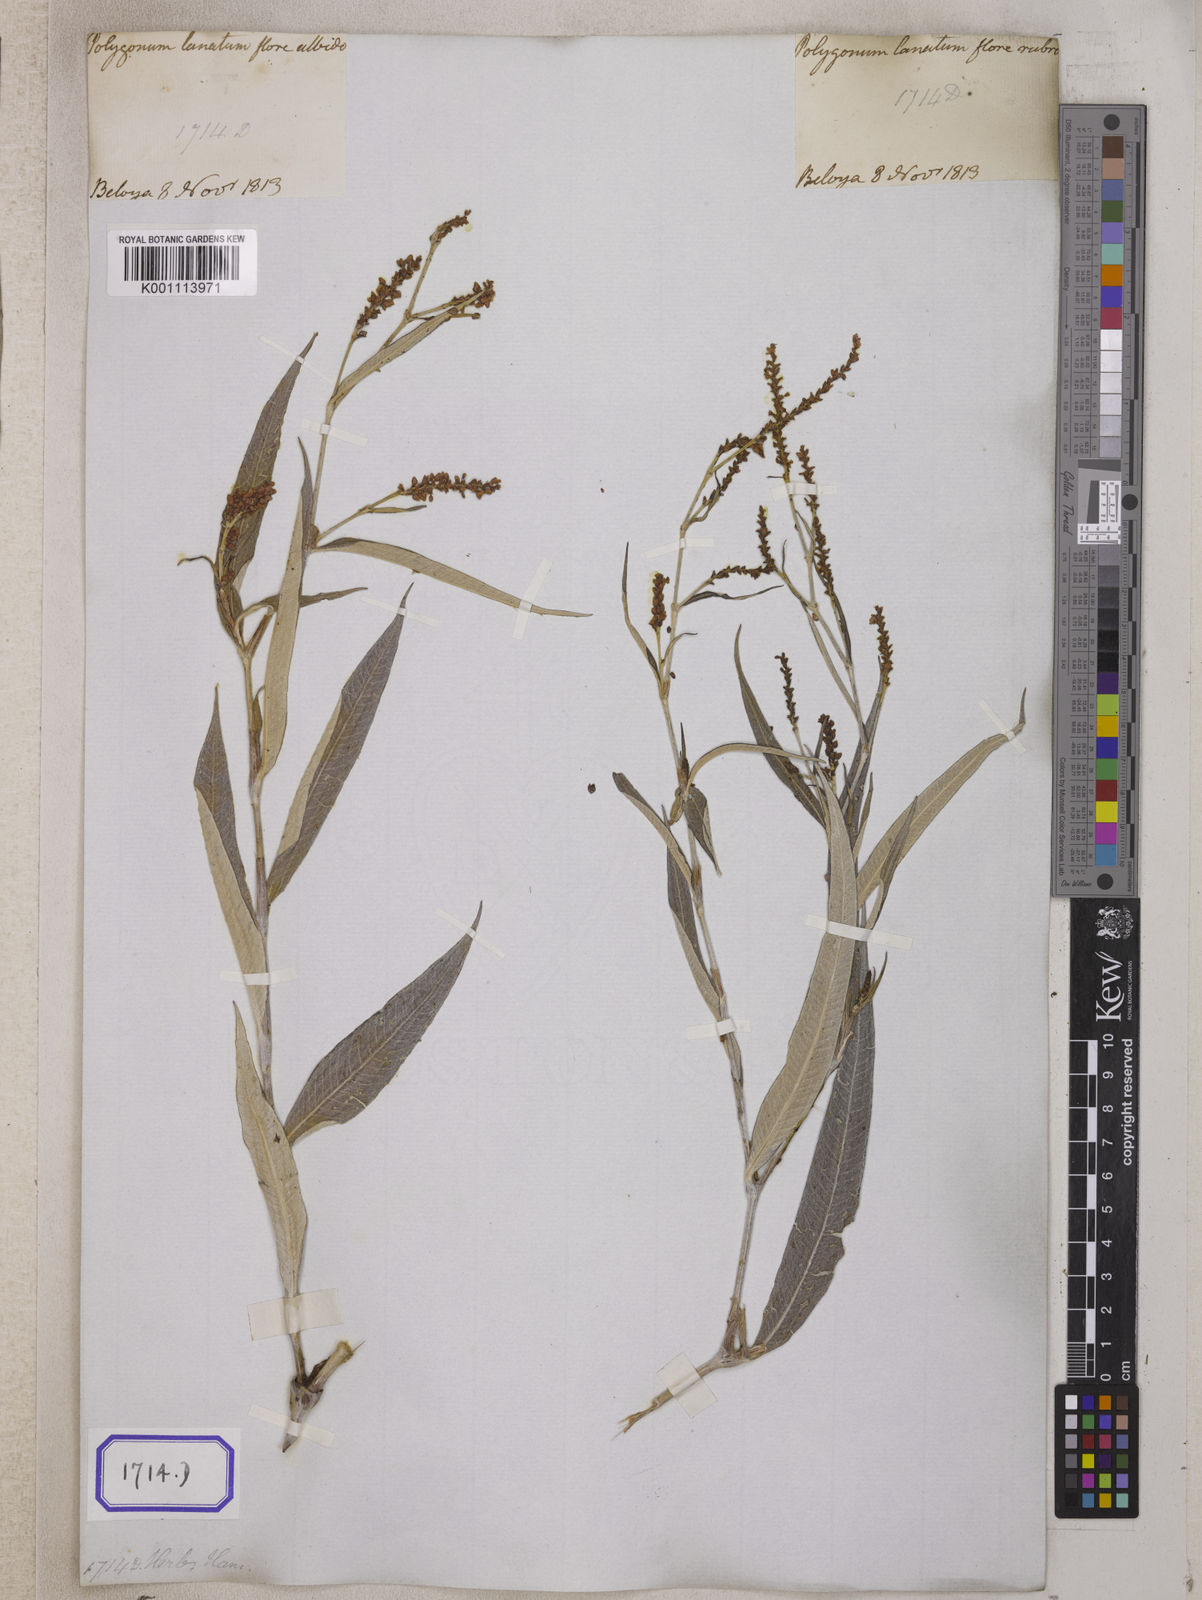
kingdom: Plantae
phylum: Tracheophyta
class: Magnoliopsida
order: Caryophyllales
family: Polygonaceae
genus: Persicaria
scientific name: Persicaria lanigera
